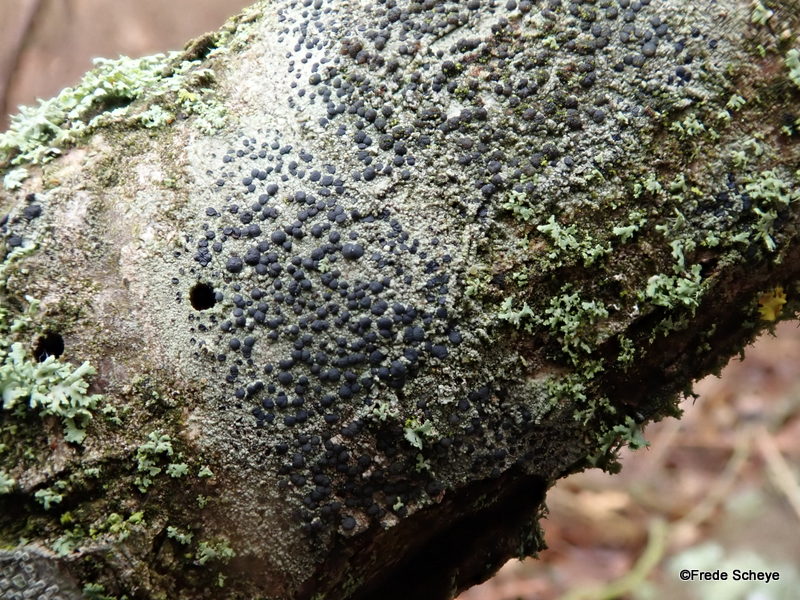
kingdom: Fungi
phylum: Ascomycota
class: Lecanoromycetes
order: Lecanorales
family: Lecanoraceae
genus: Lecidella
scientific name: Lecidella elaeochroma
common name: grågrøn skivelav
